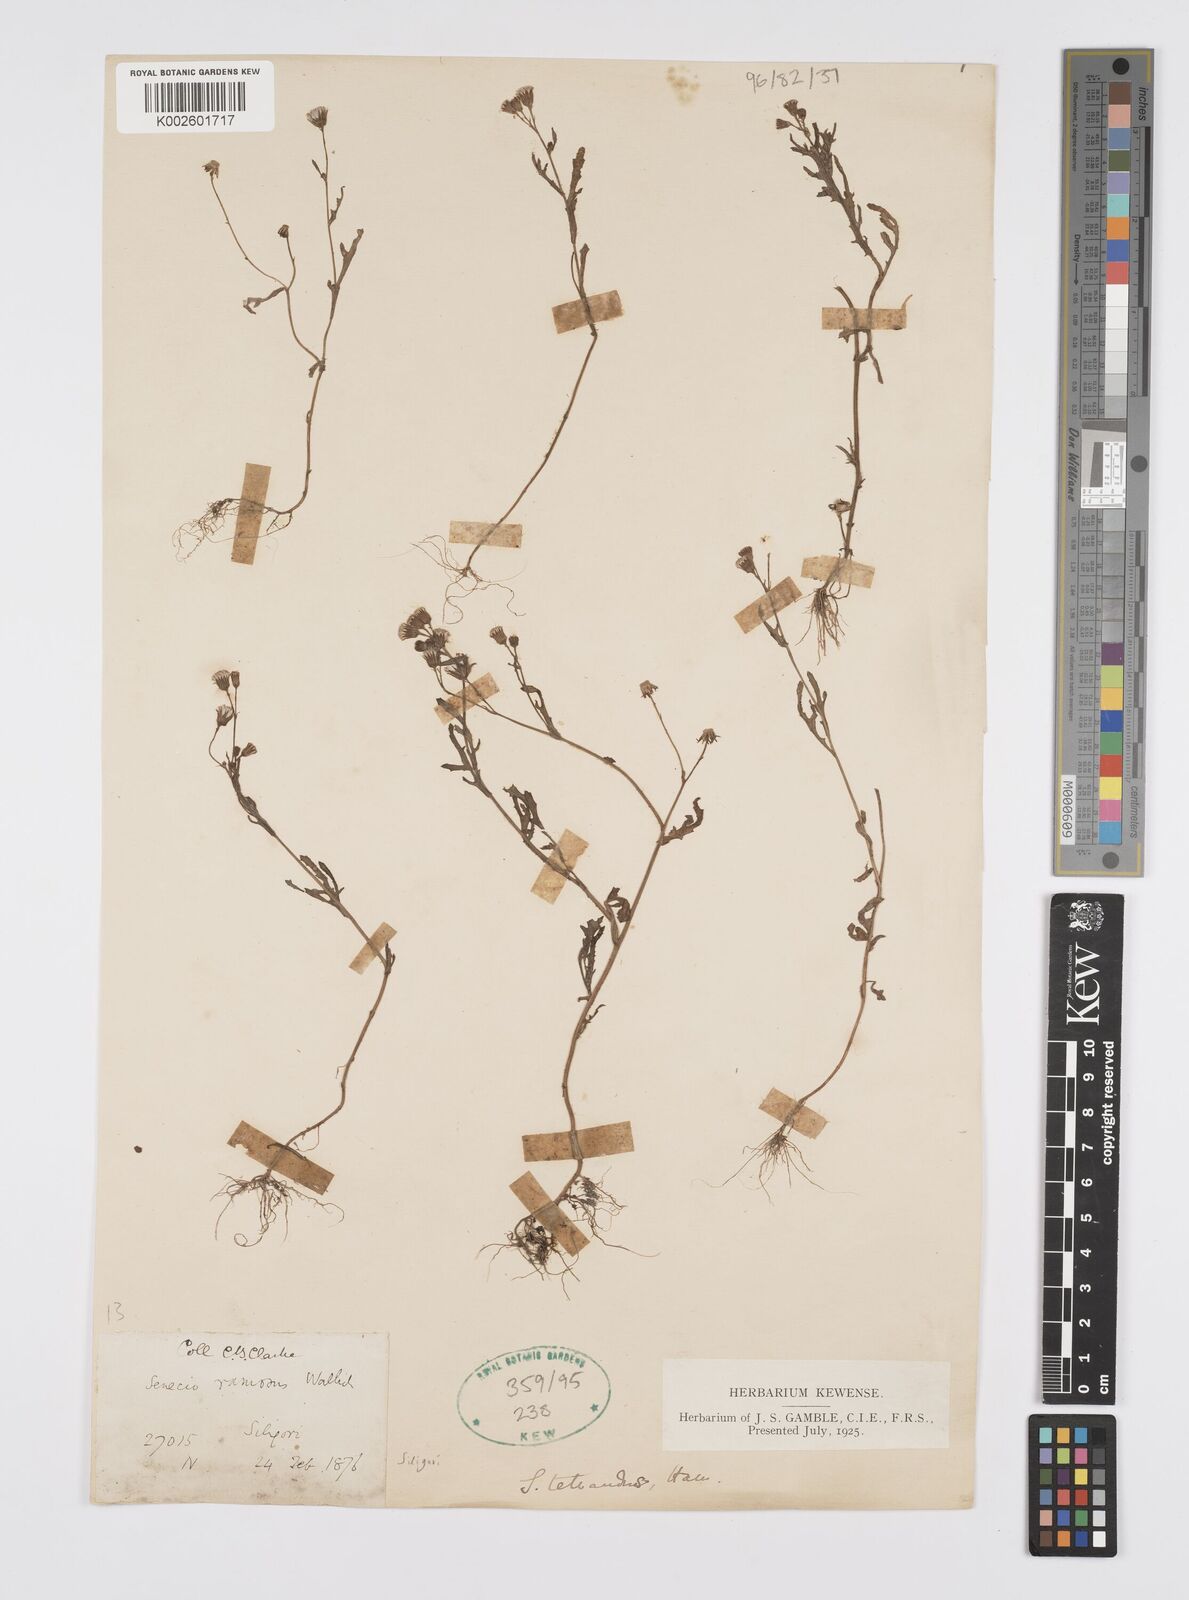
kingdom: Plantae
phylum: Tracheophyta
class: Magnoliopsida
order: Asterales
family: Asteraceae
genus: Senecio
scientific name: Senecio ramosus
